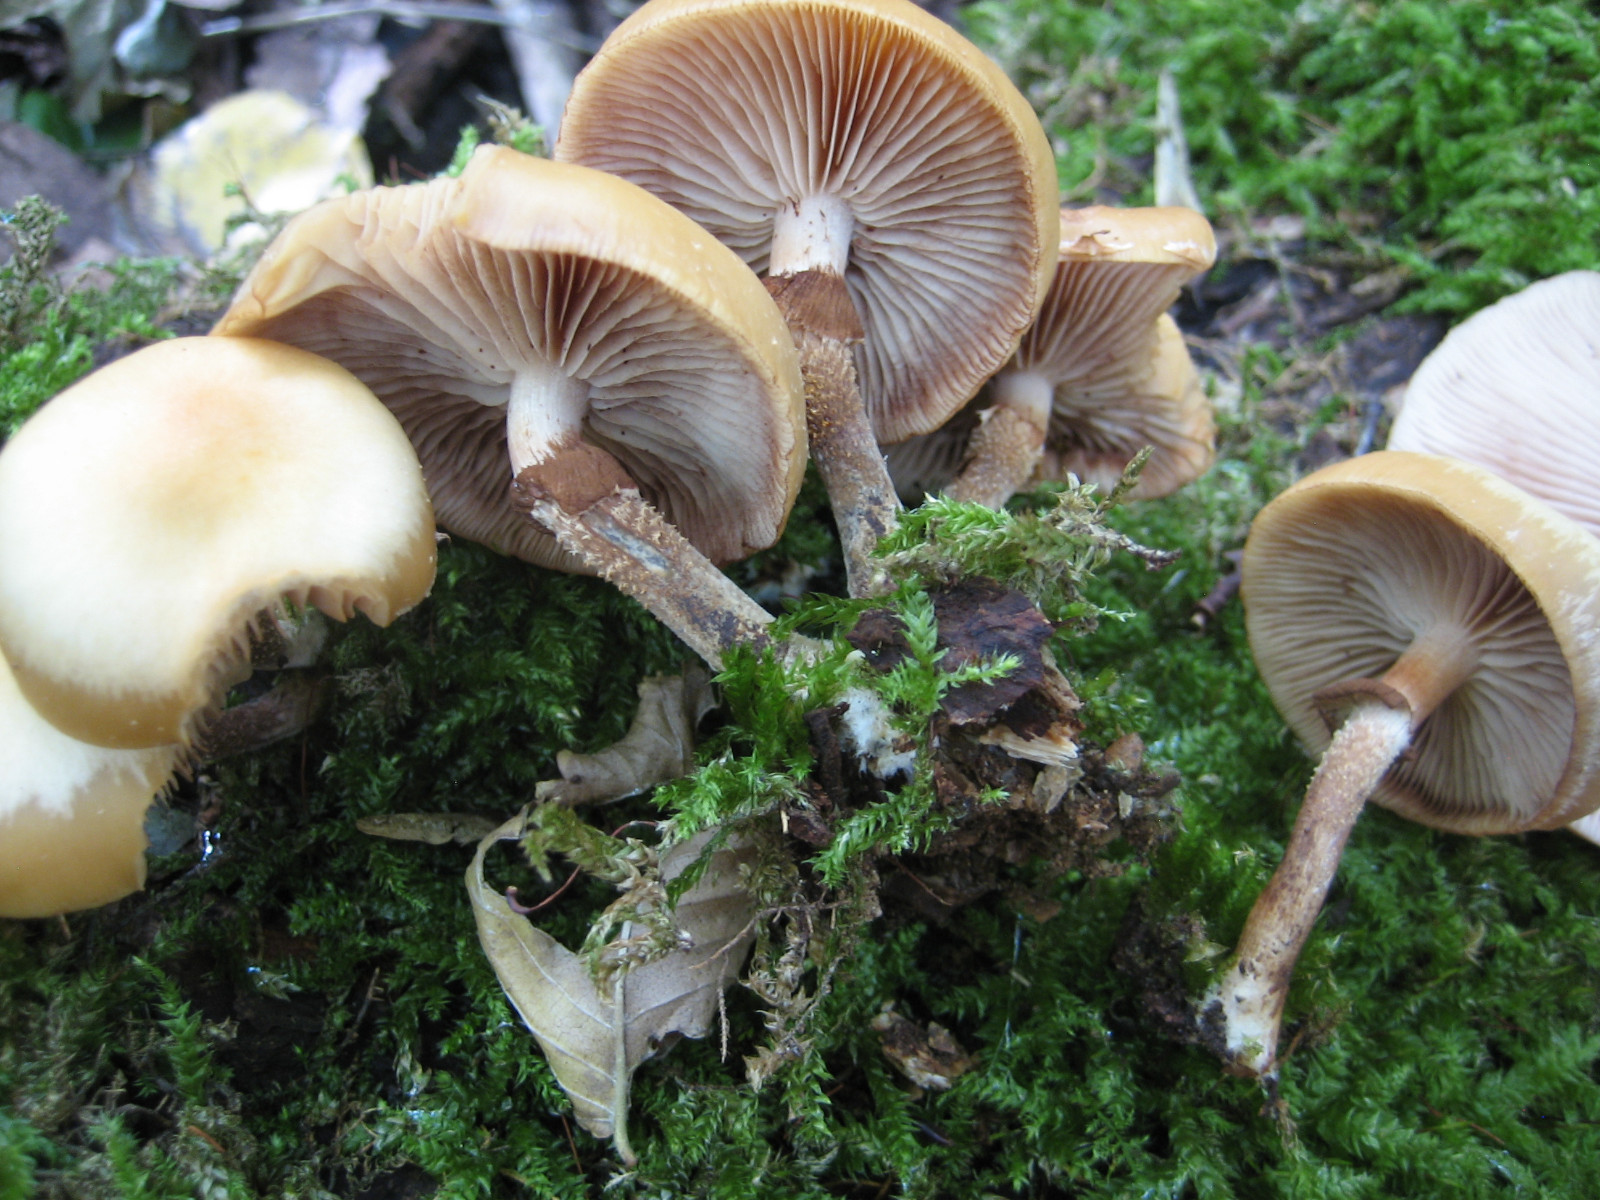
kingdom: Fungi
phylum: Basidiomycota
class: Agaricomycetes
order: Agaricales
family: Strophariaceae
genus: Kuehneromyces
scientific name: Kuehneromyces mutabilis
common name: foranderlig skælhat
